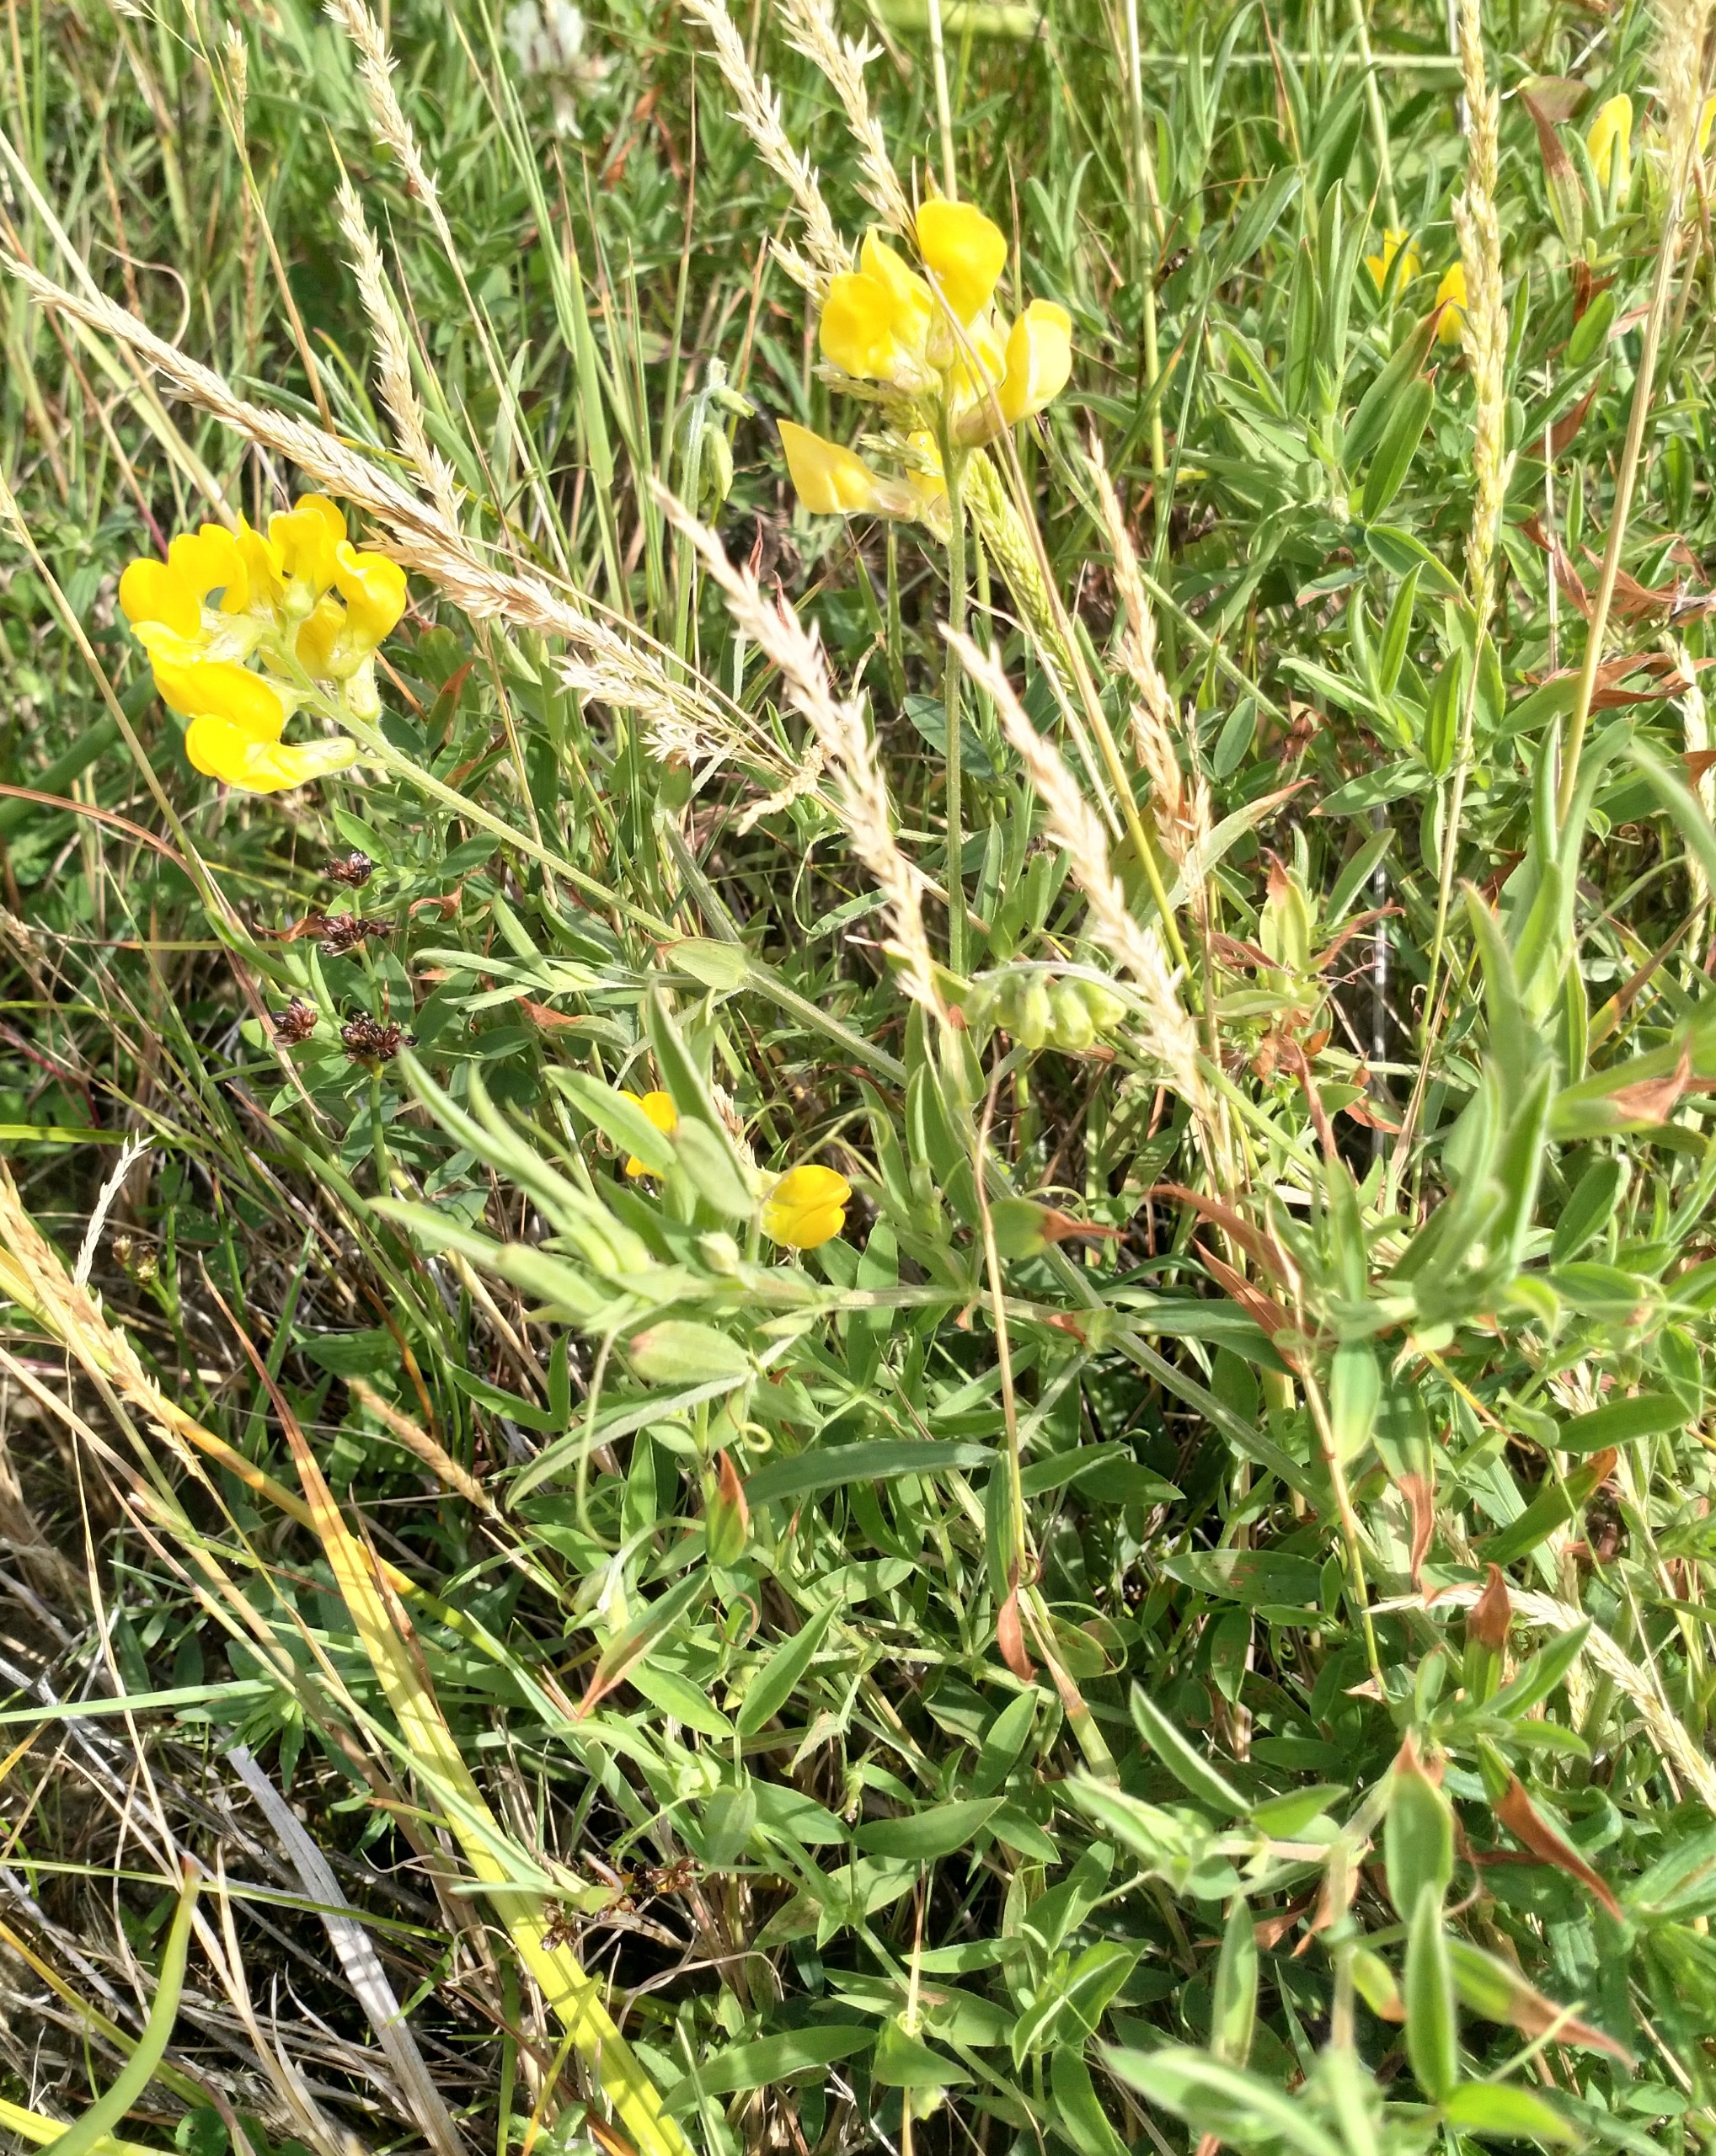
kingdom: Plantae
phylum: Tracheophyta
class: Magnoliopsida
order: Fabales
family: Fabaceae
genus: Lathyrus
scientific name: Lathyrus pratensis
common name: Gul fladbælg
